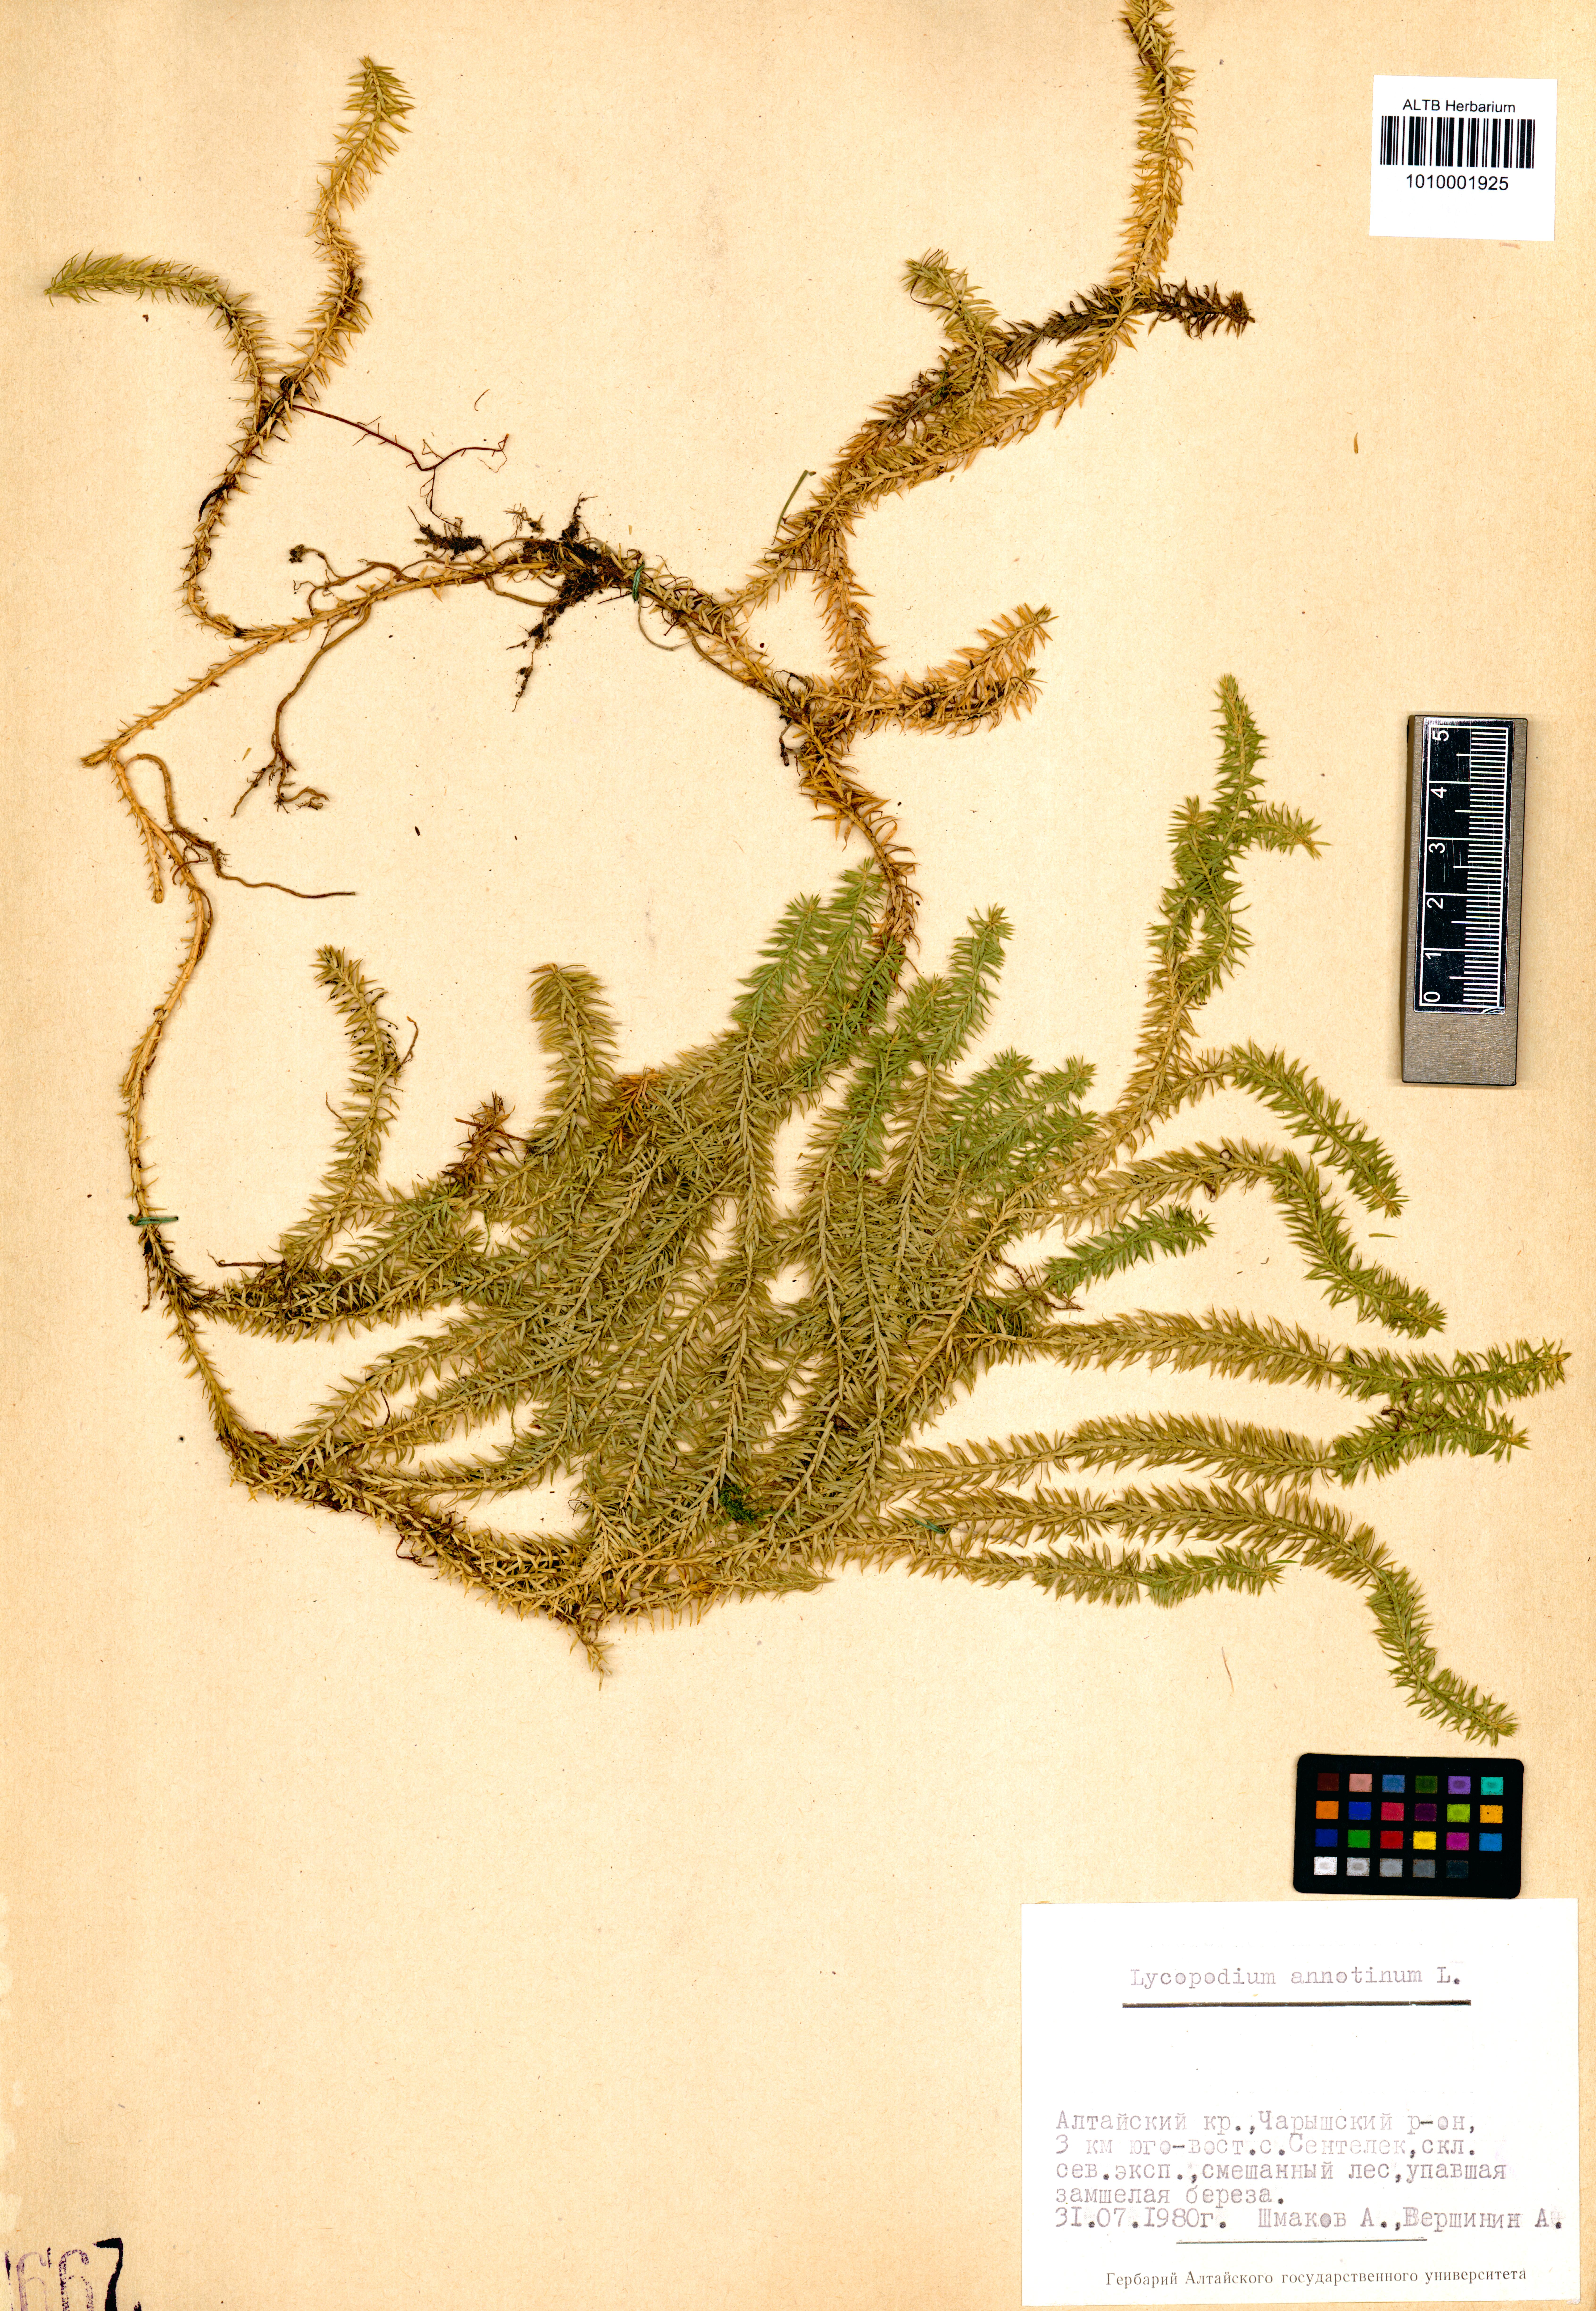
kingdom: Plantae
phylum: Tracheophyta
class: Lycopodiopsida
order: Lycopodiales
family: Lycopodiaceae
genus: Spinulum
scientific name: Spinulum annotinum
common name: Interrupted club-moss
